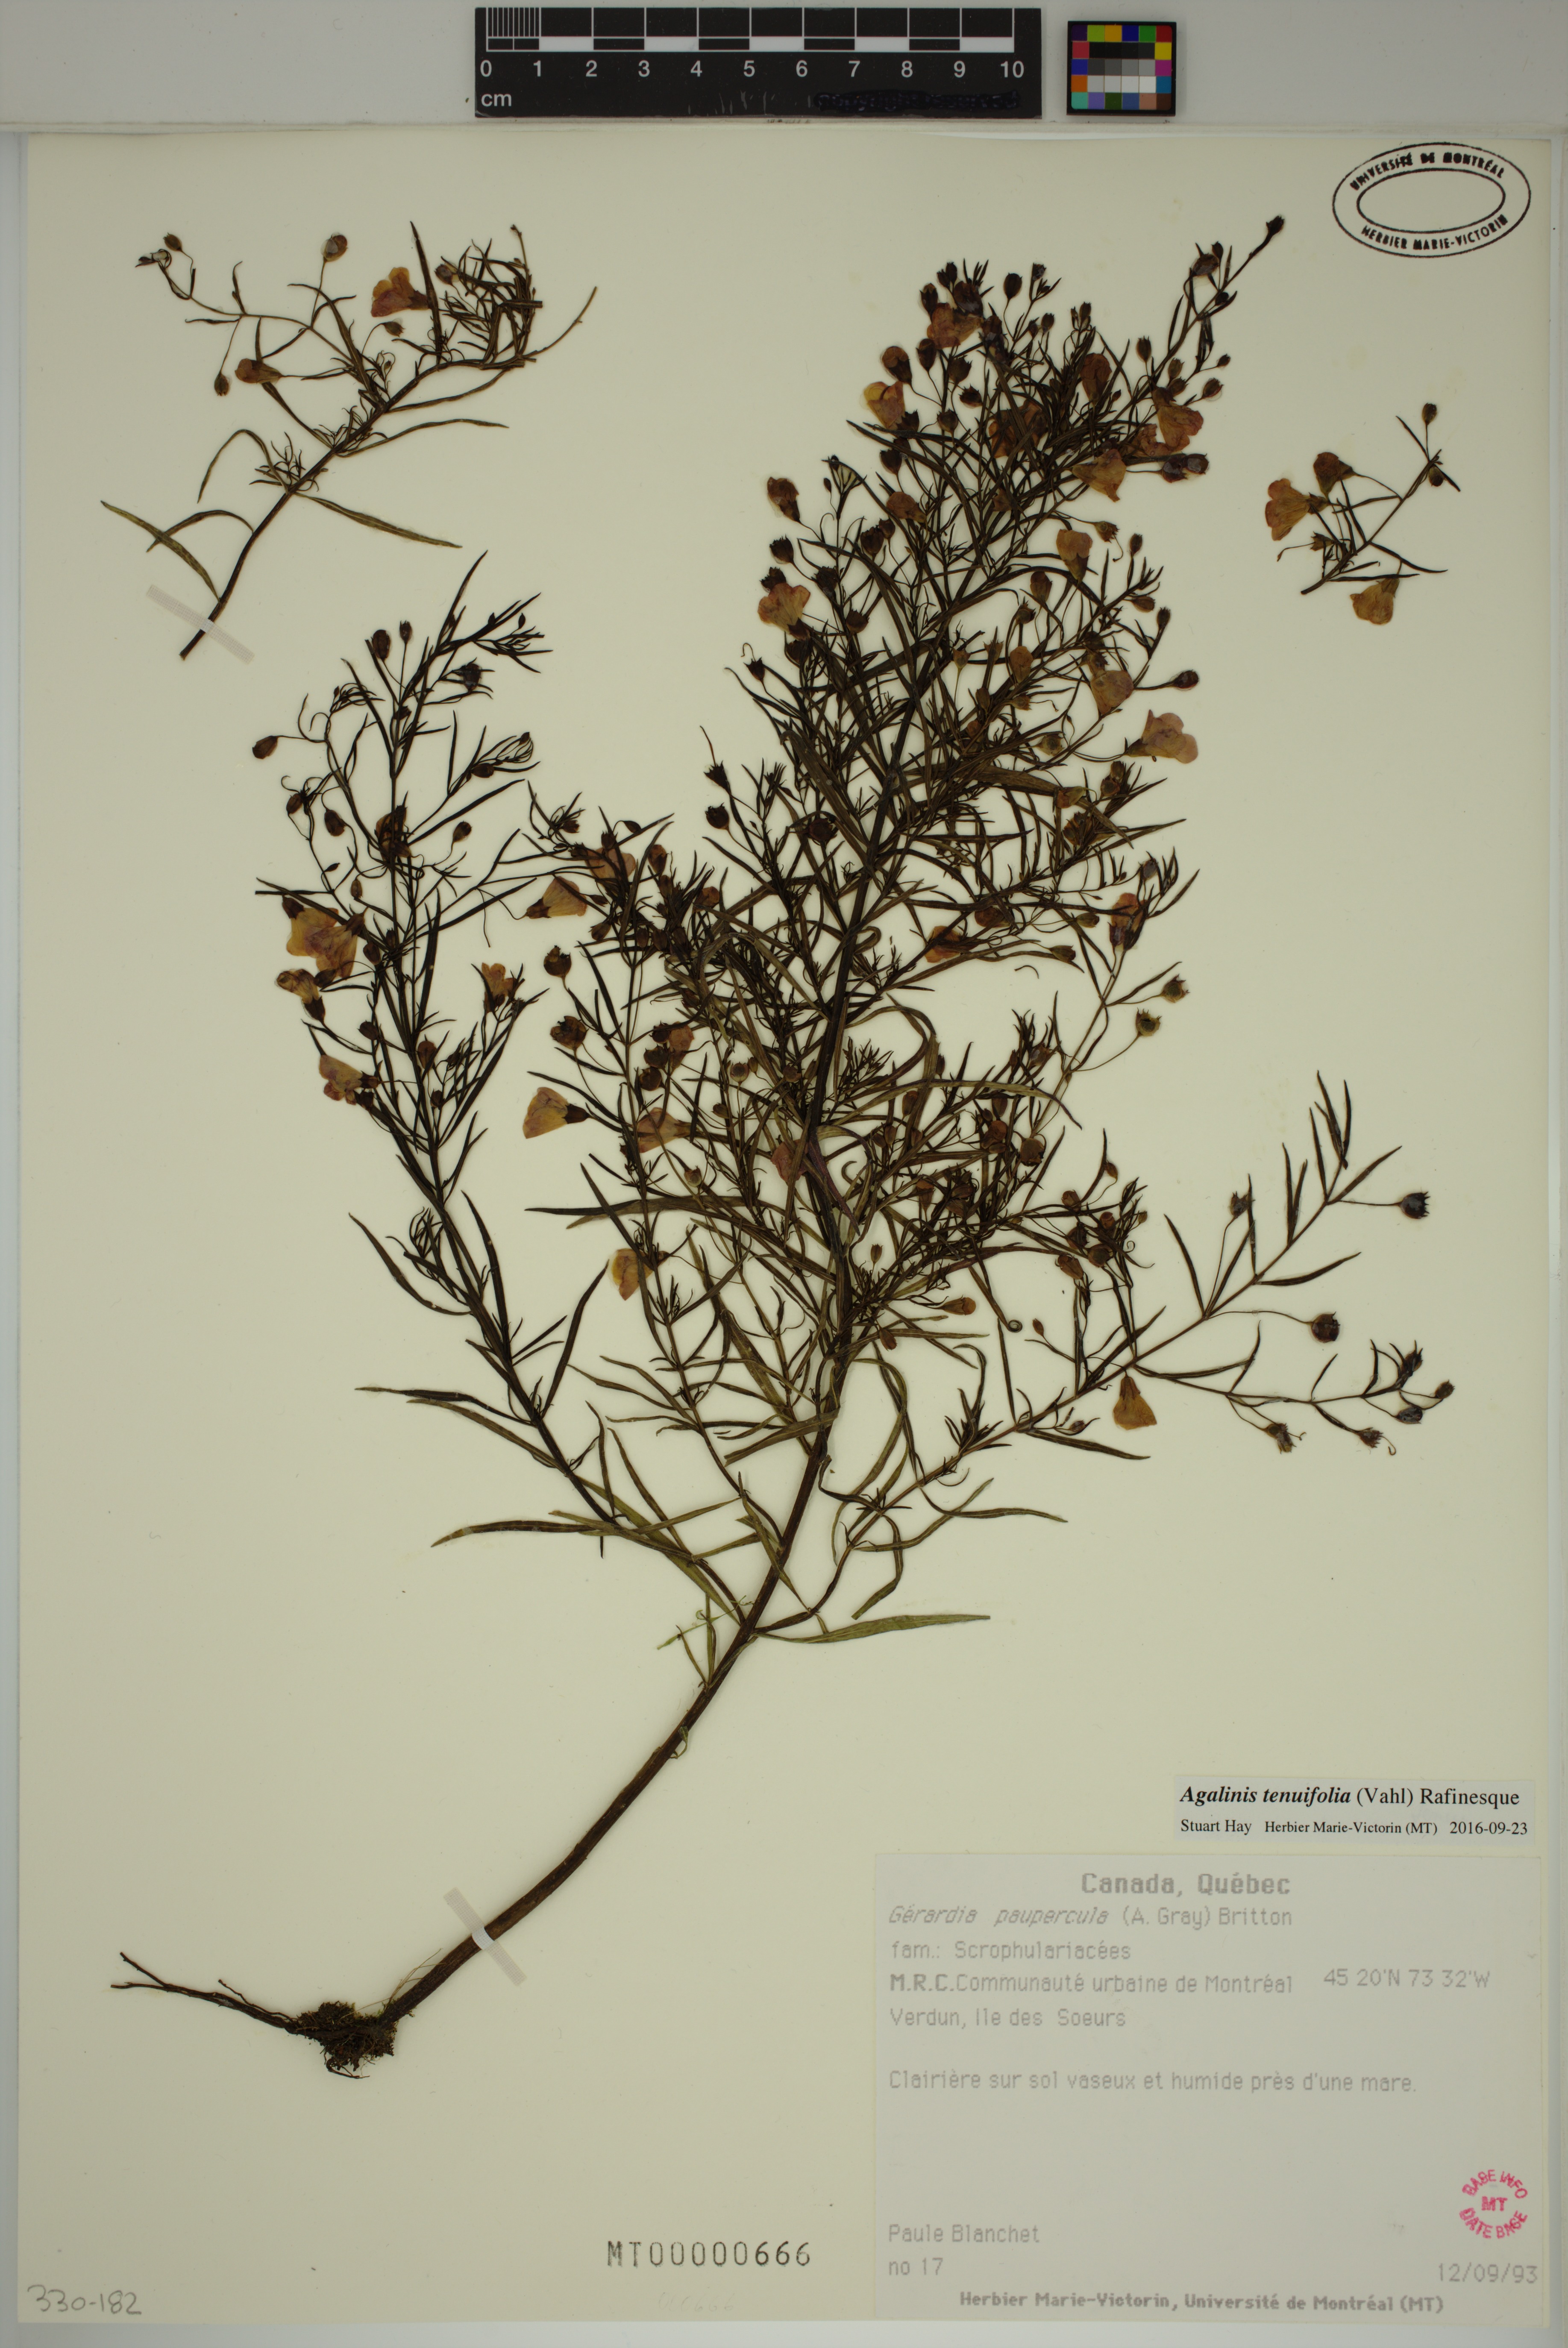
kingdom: Plantae
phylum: Tracheophyta
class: Magnoliopsida
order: Lamiales
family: Orobanchaceae
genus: Agalinis
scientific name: Agalinis tenuifolia
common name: Slender agalinis
